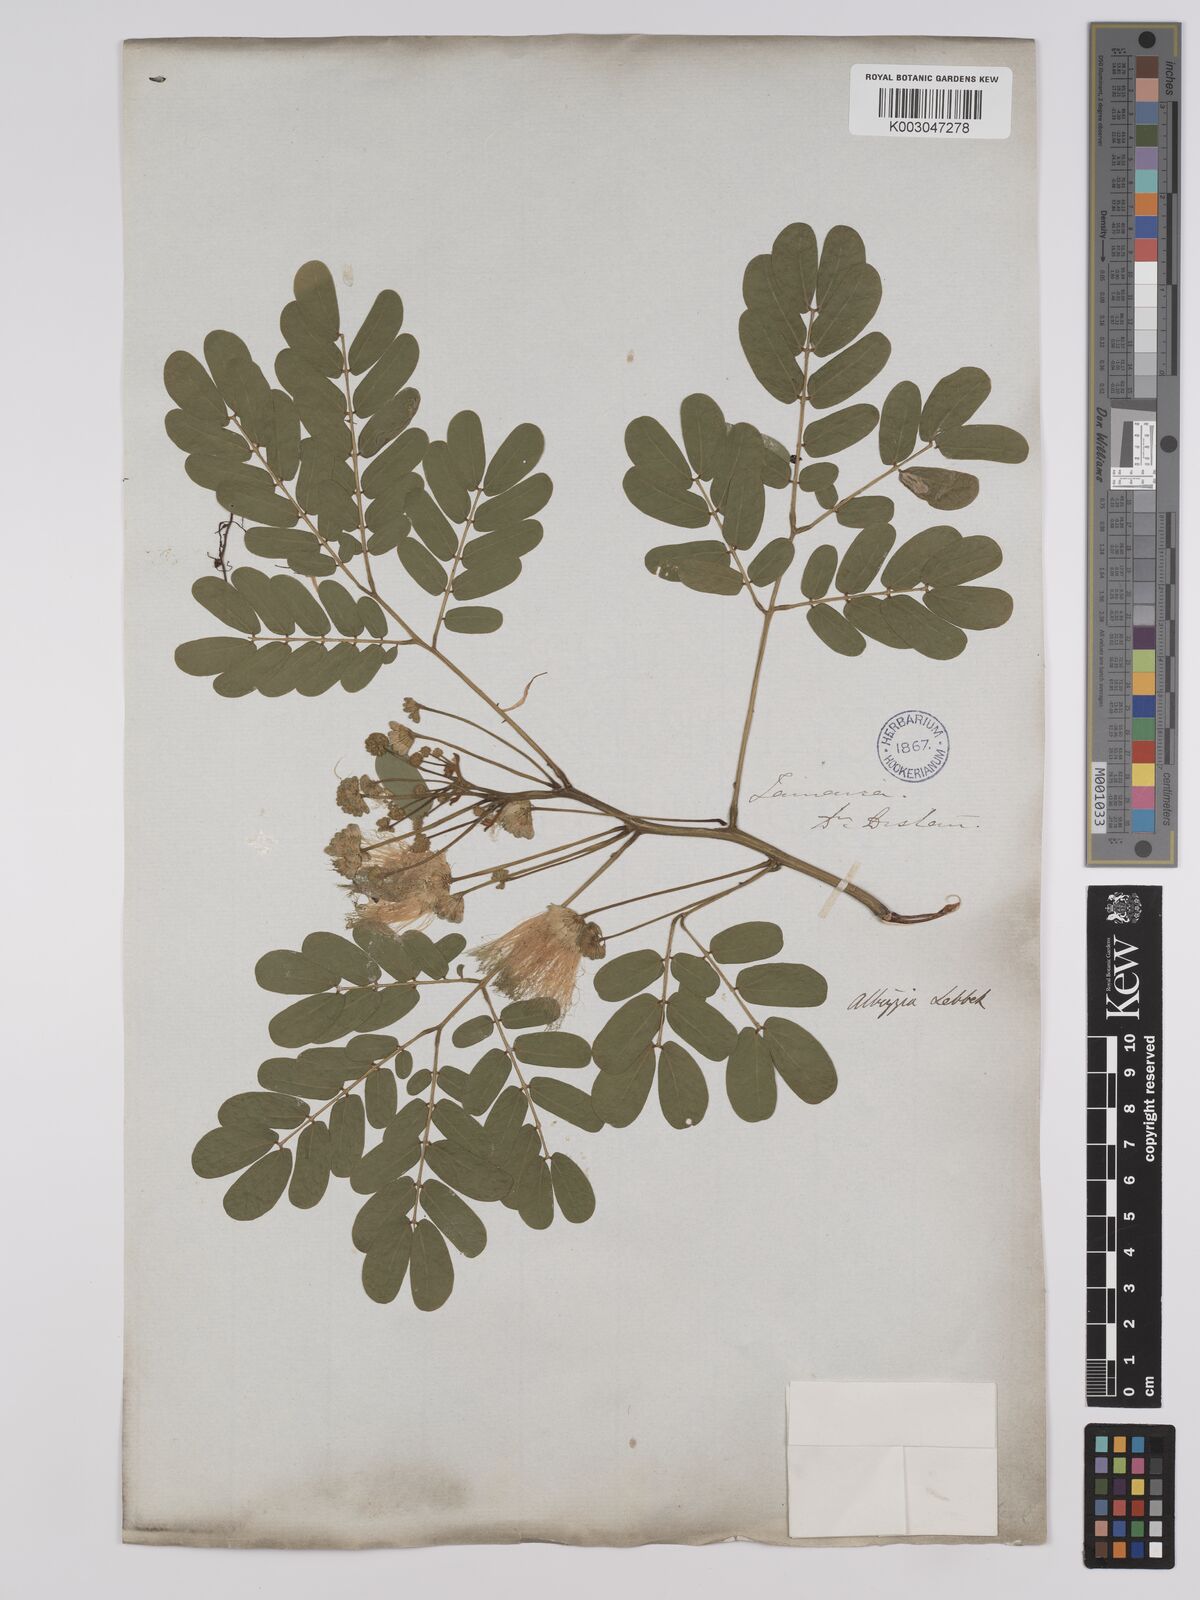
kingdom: Plantae
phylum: Tracheophyta
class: Magnoliopsida
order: Fabales
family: Fabaceae
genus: Albizia
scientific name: Albizia lebbeck
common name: Woman's tongue
